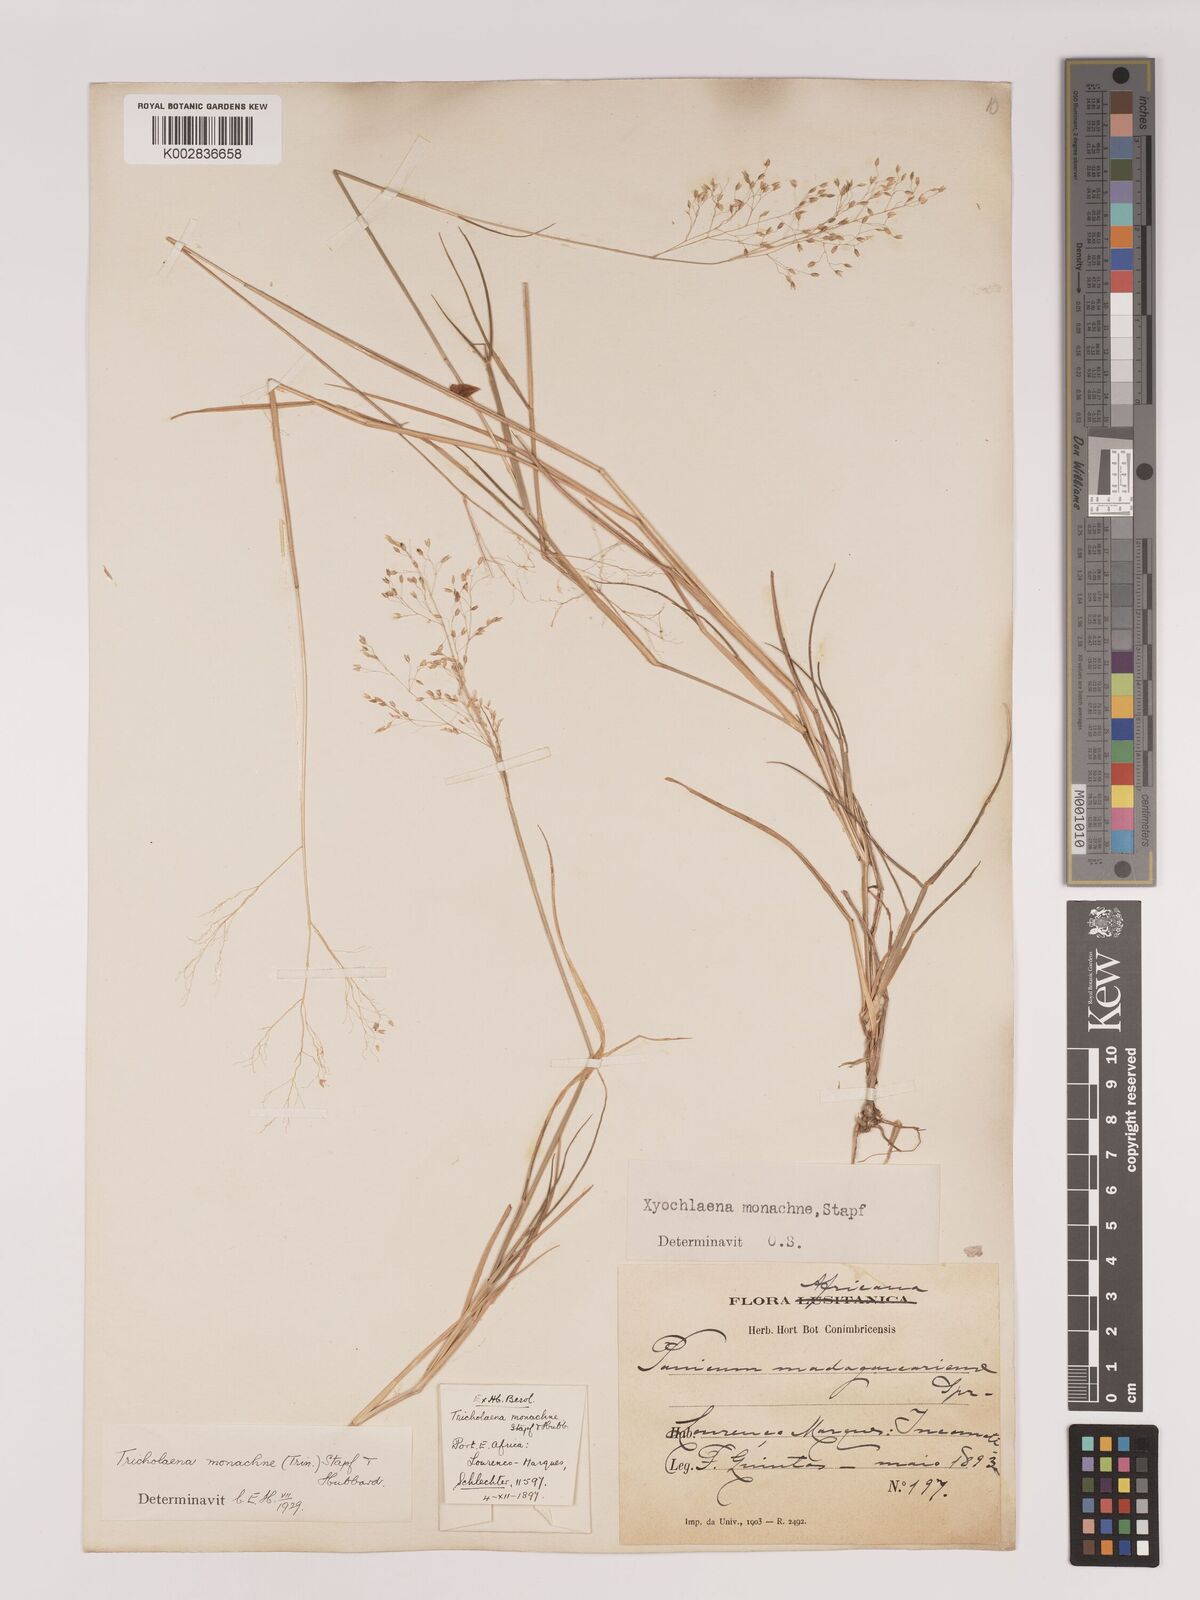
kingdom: Plantae
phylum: Tracheophyta
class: Liliopsida
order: Poales
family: Poaceae
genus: Tricholaena
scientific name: Tricholaena monachne
